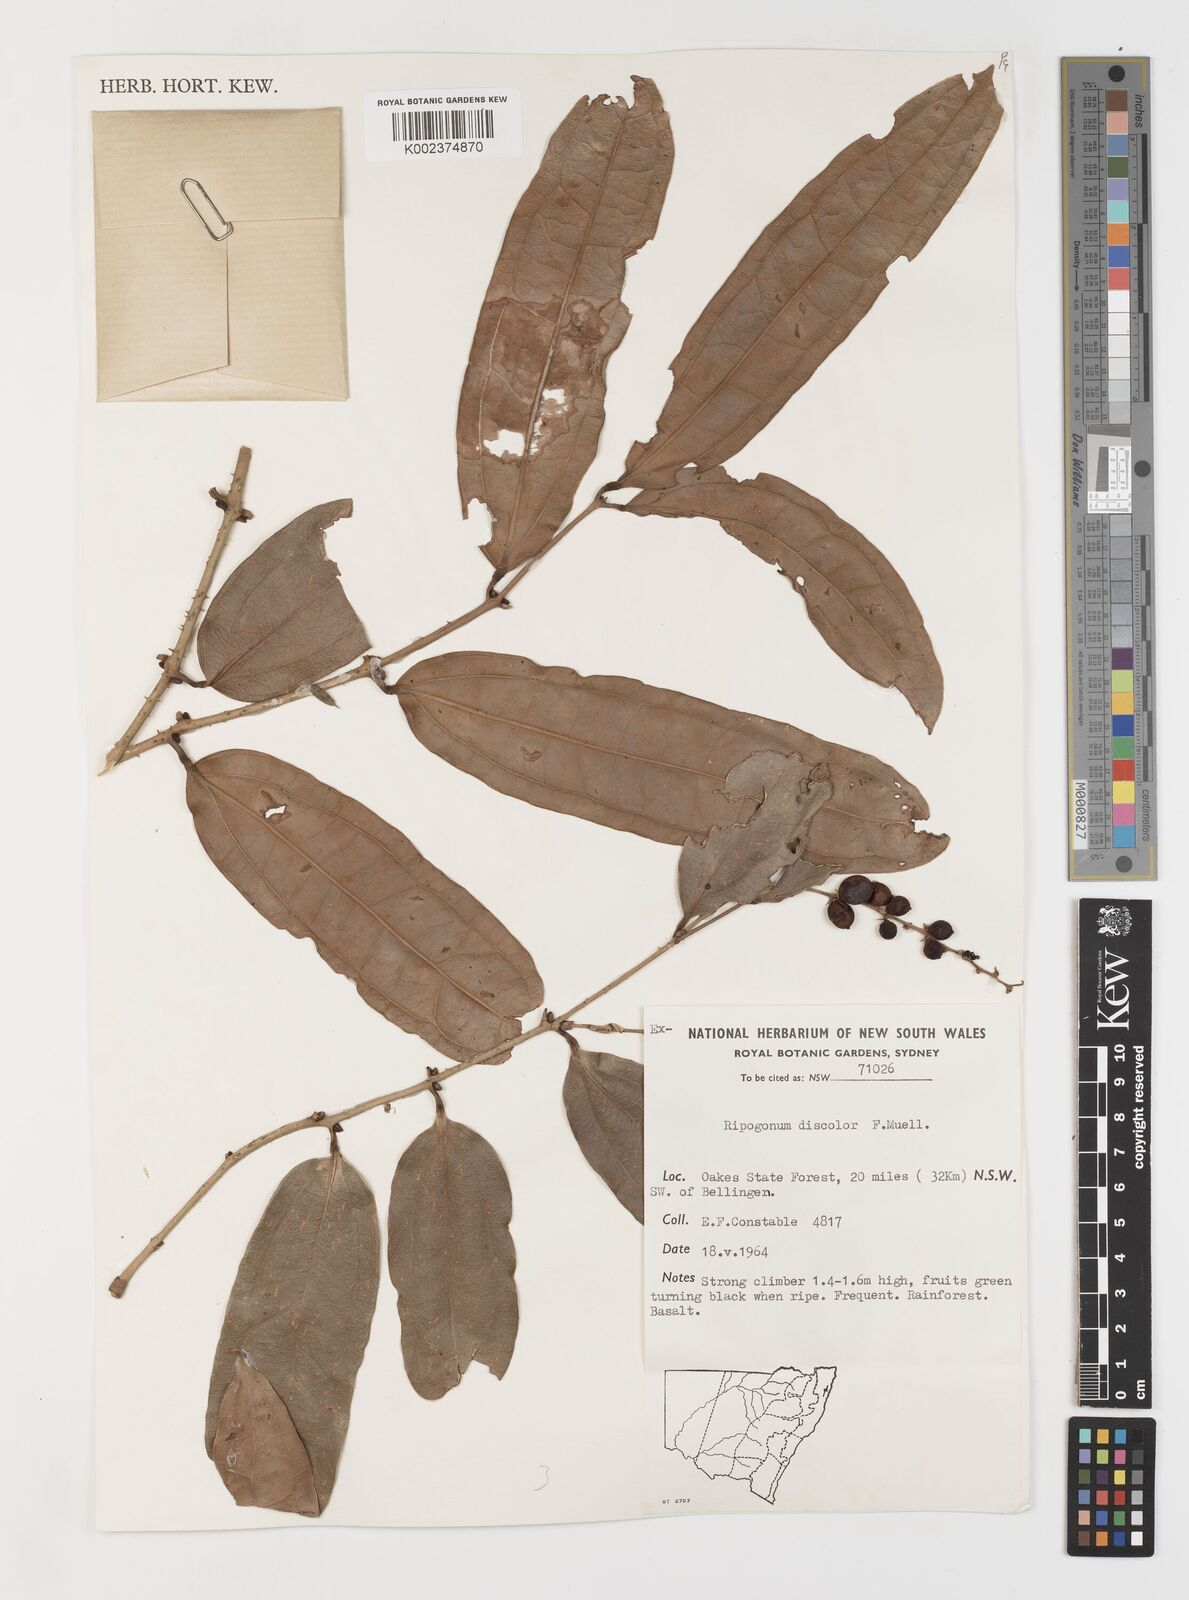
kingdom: Plantae
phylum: Tracheophyta
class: Liliopsida
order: Liliales
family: Ripogonaceae
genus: Ripogonum
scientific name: Ripogonum discolor
